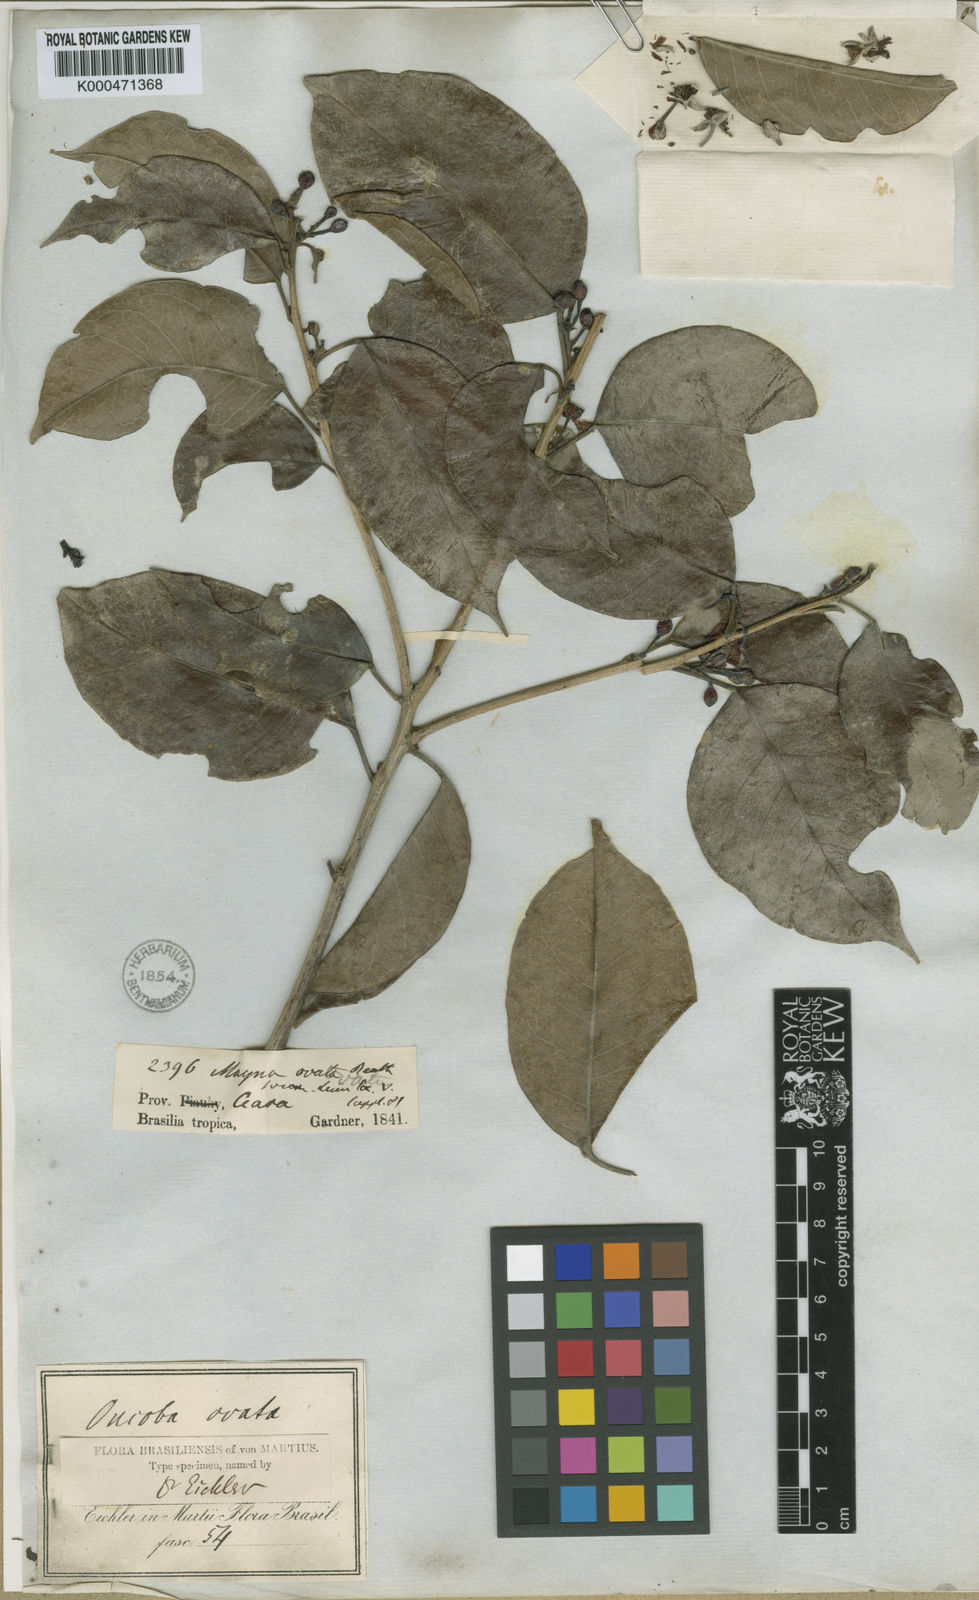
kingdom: Plantae
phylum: Tracheophyta
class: Magnoliopsida
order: Malpighiales
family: Achariaceae
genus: Lindackeria
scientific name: Lindackeria ovata
